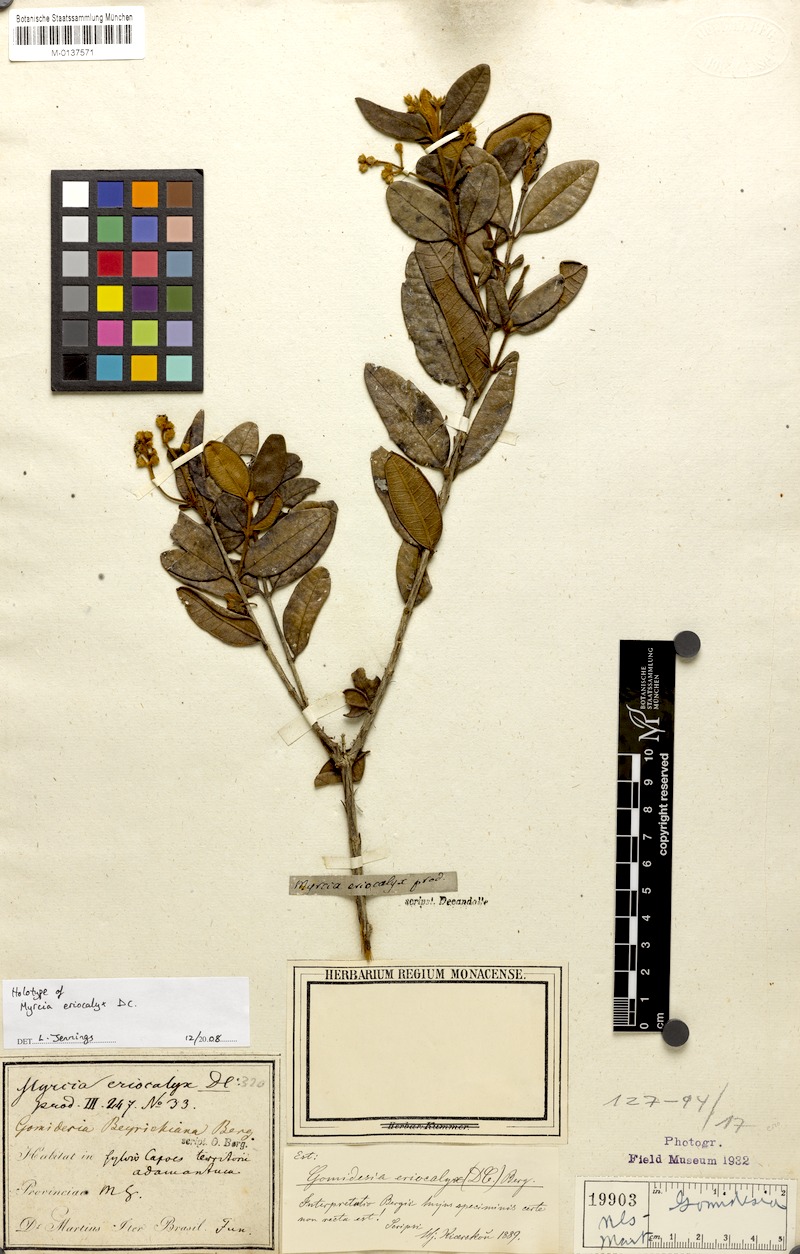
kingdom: Plantae
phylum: Tracheophyta
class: Magnoliopsida
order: Myrtales
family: Myrtaceae
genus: Myrcia
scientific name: Myrcia eriocalyx
